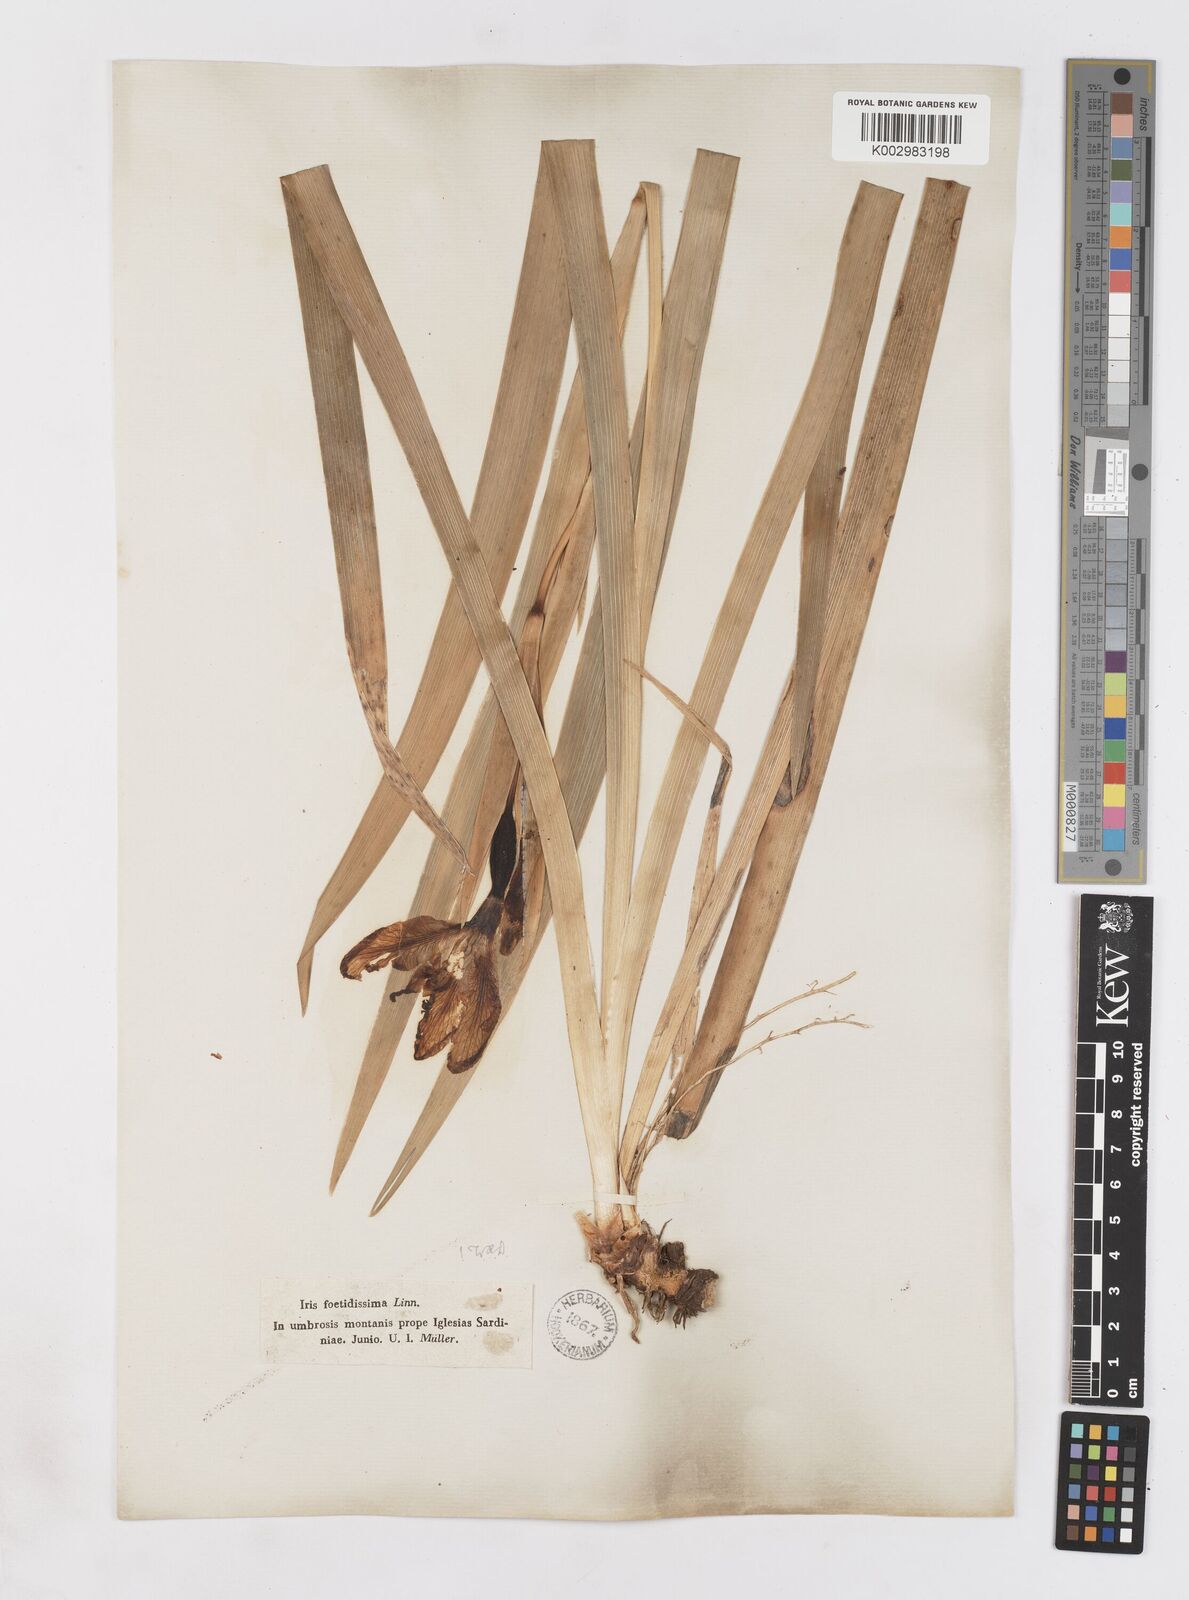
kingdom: Plantae
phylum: Tracheophyta
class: Liliopsida
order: Asparagales
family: Iridaceae
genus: Iris
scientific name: Iris foetidissima
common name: Stinking iris
